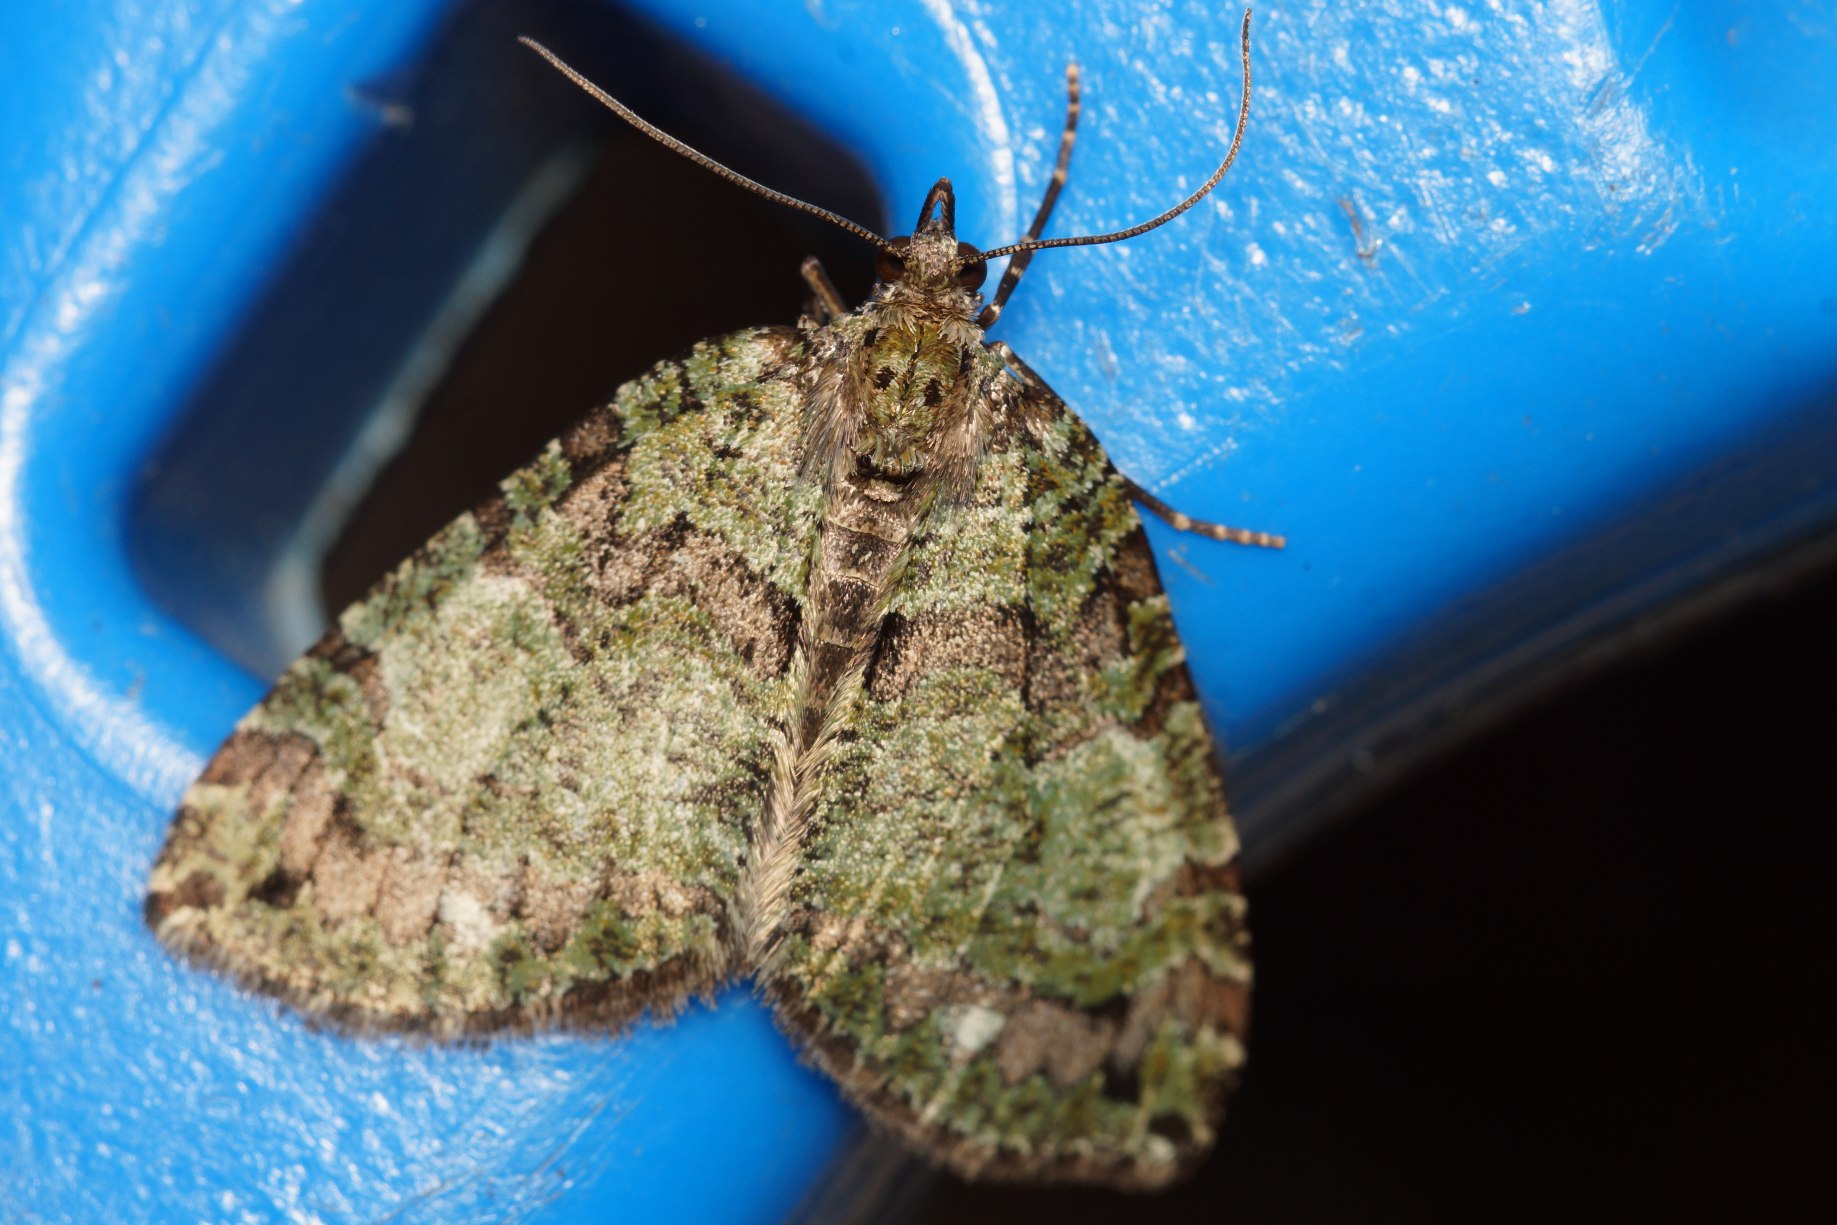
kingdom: Animalia
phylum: Arthropoda
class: Insecta
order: Lepidoptera
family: Geometridae
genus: Hydriomena
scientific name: Hydriomena furcata
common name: Vatret bladmåler
